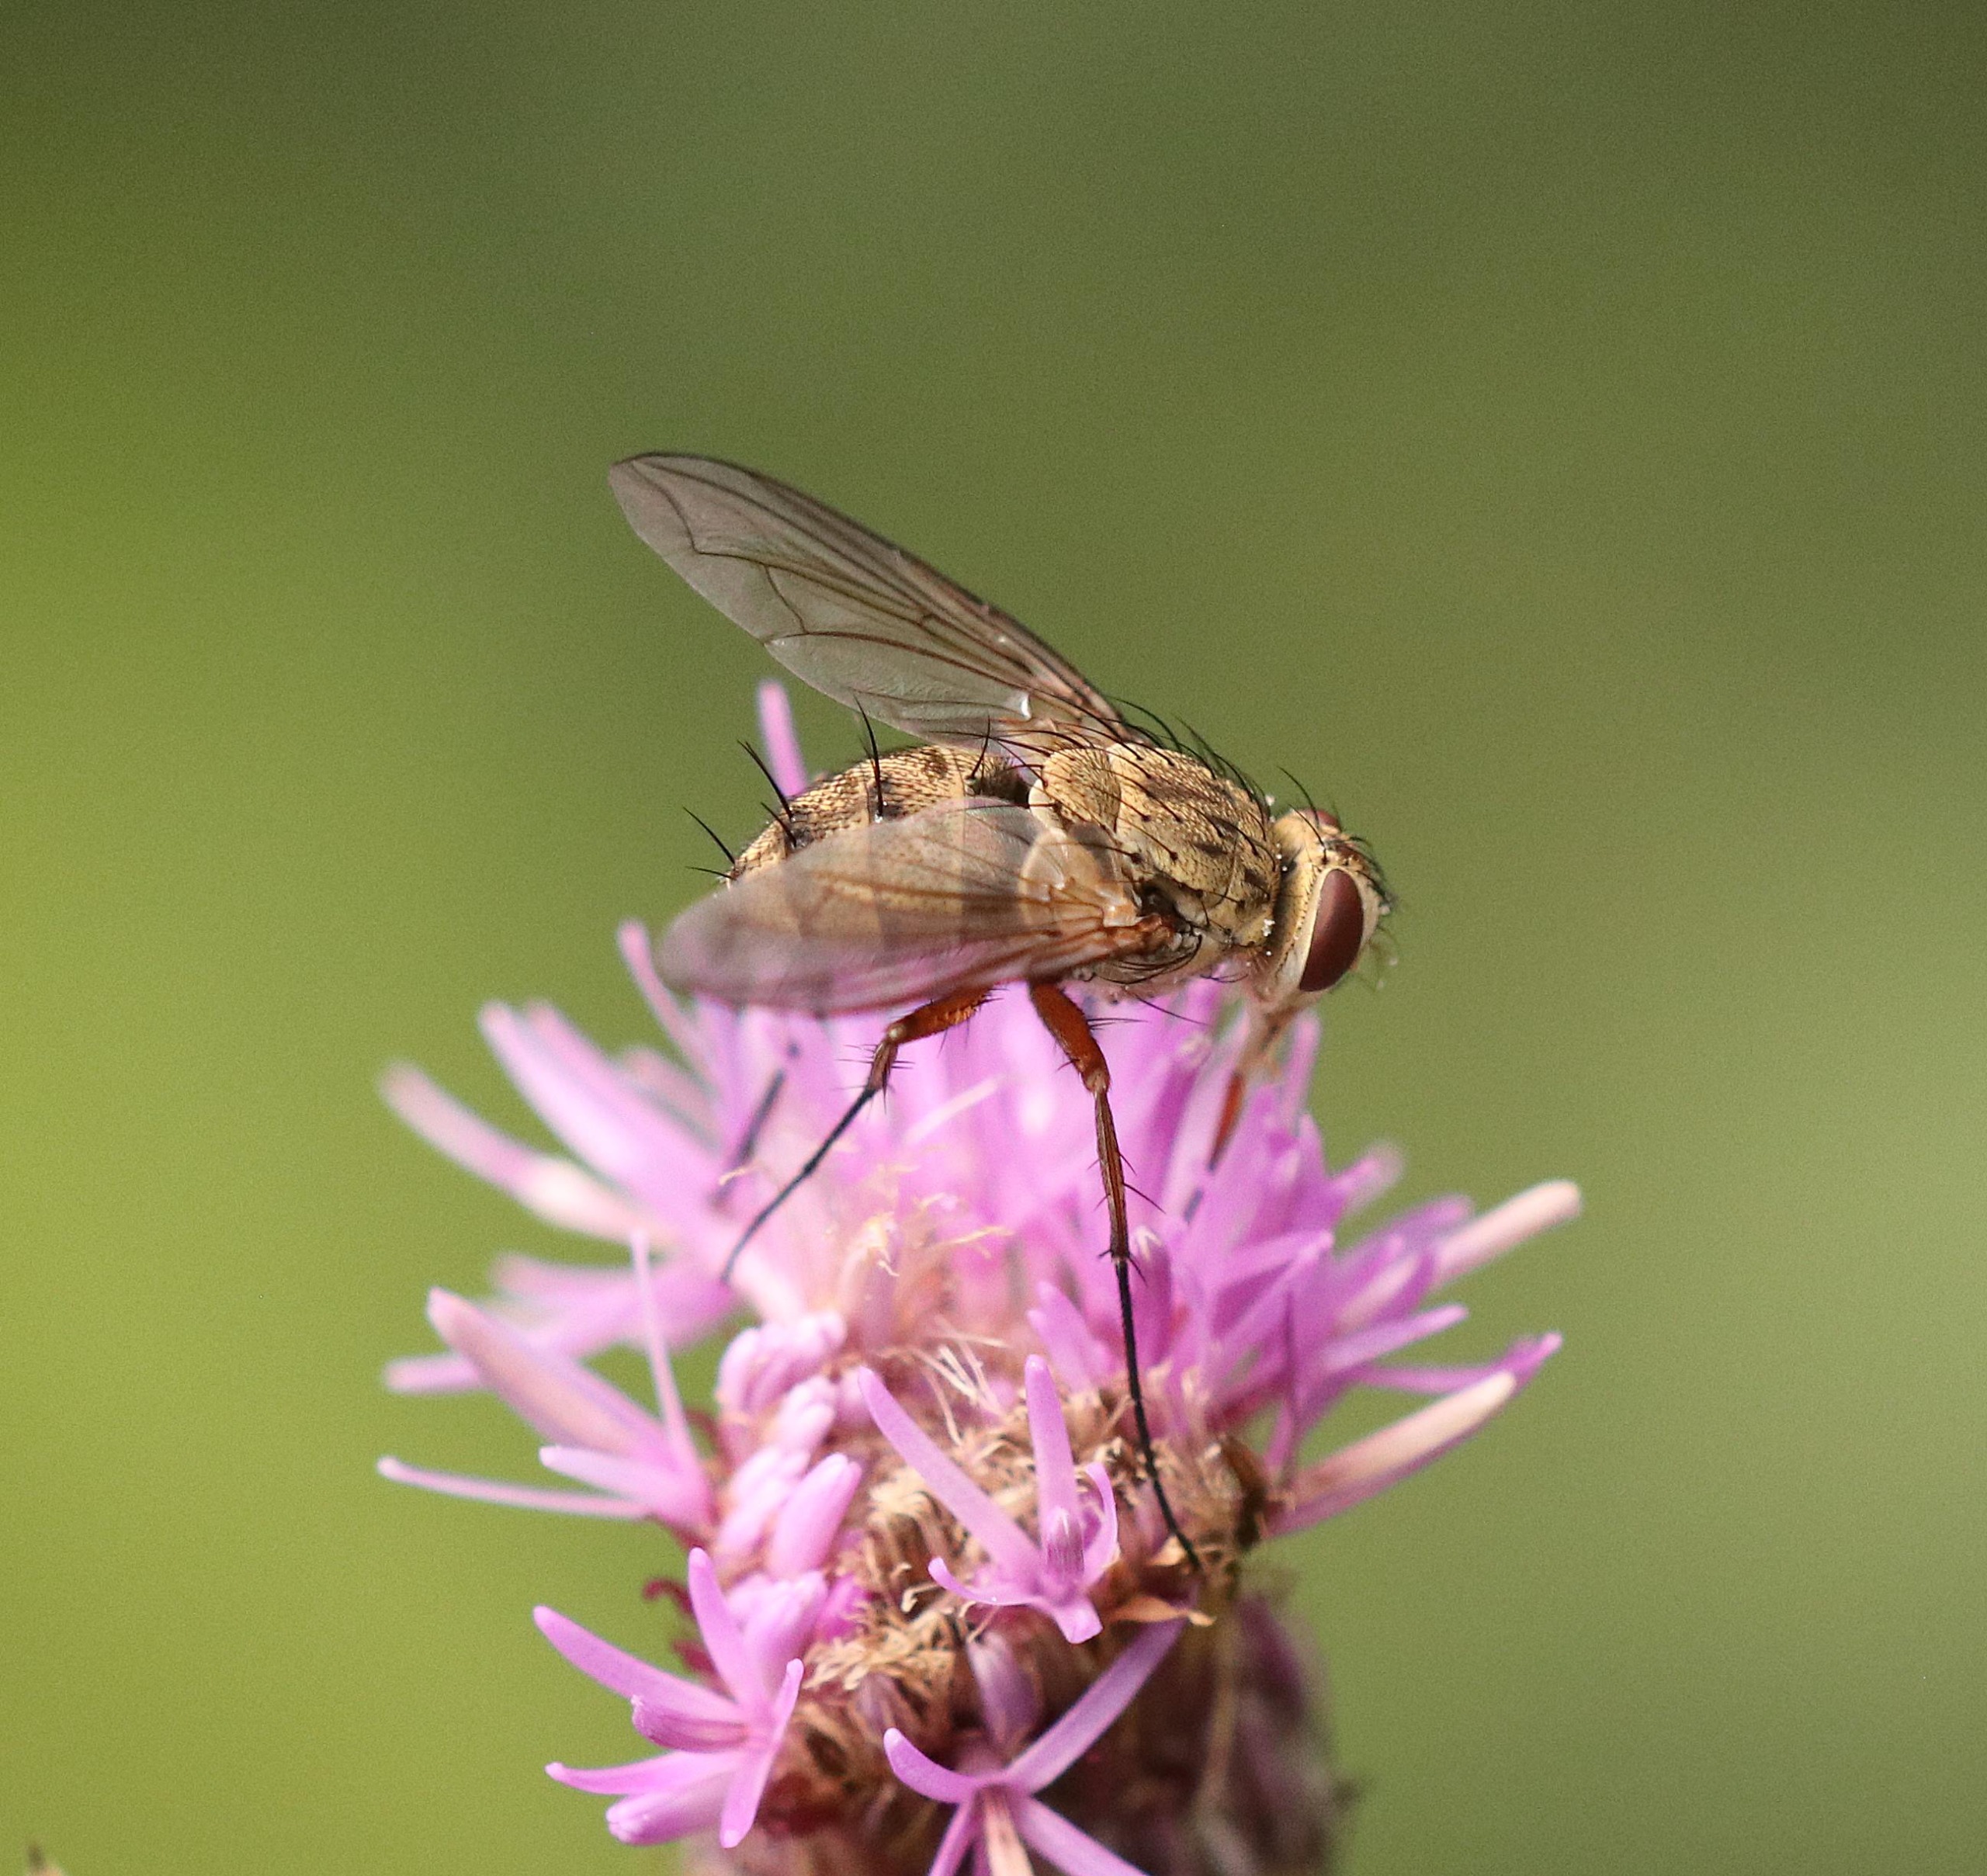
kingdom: Animalia
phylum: Arthropoda
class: Insecta
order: Diptera
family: Tachinidae
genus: Prosena
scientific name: Prosena siberita
